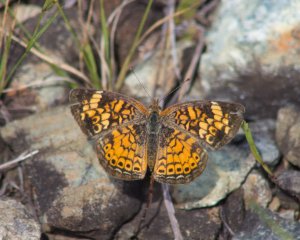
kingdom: Animalia
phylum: Arthropoda
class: Insecta
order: Lepidoptera
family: Nymphalidae
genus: Phyciodes
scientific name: Phyciodes tharos
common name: Pearl Crescent
